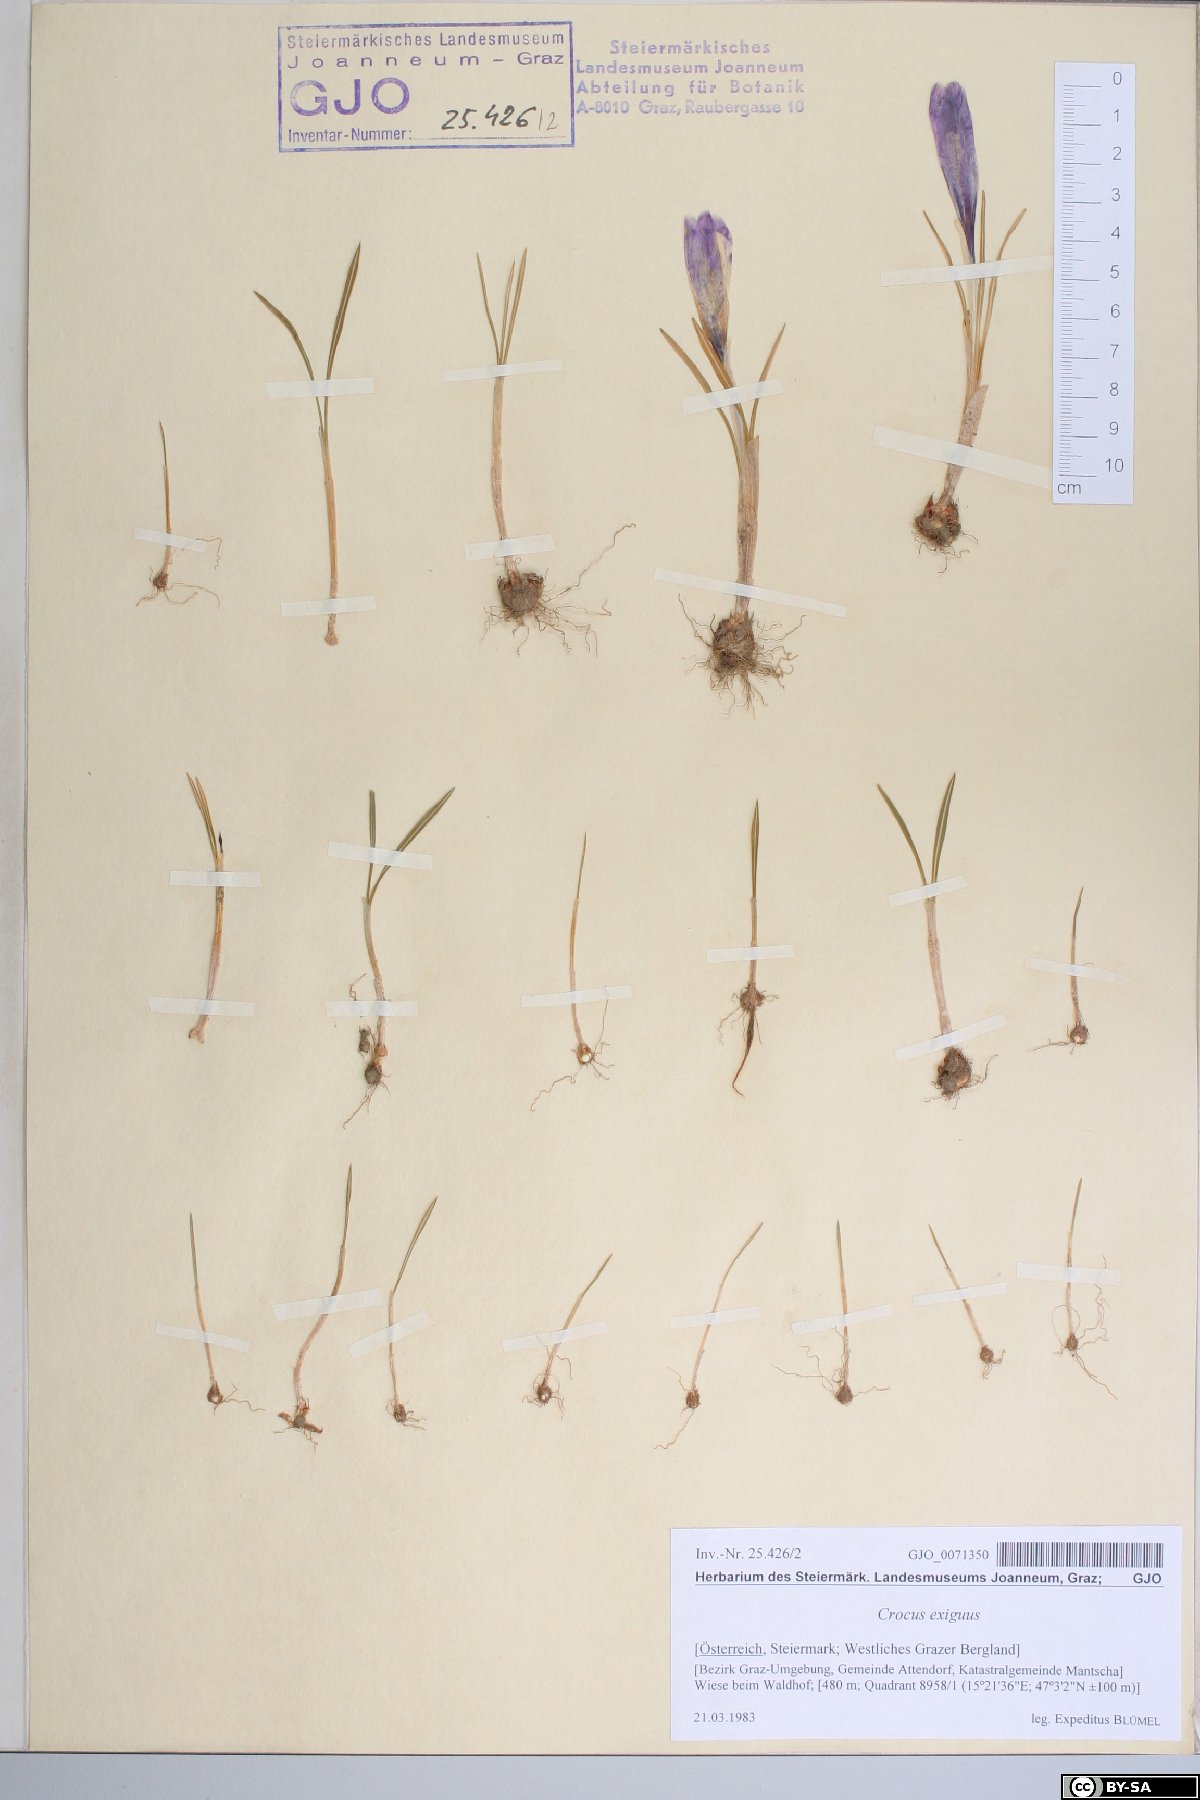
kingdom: Plantae
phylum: Tracheophyta
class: Liliopsida
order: Asparagales
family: Iridaceae
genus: Crocus
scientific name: Crocus heuffelianus
